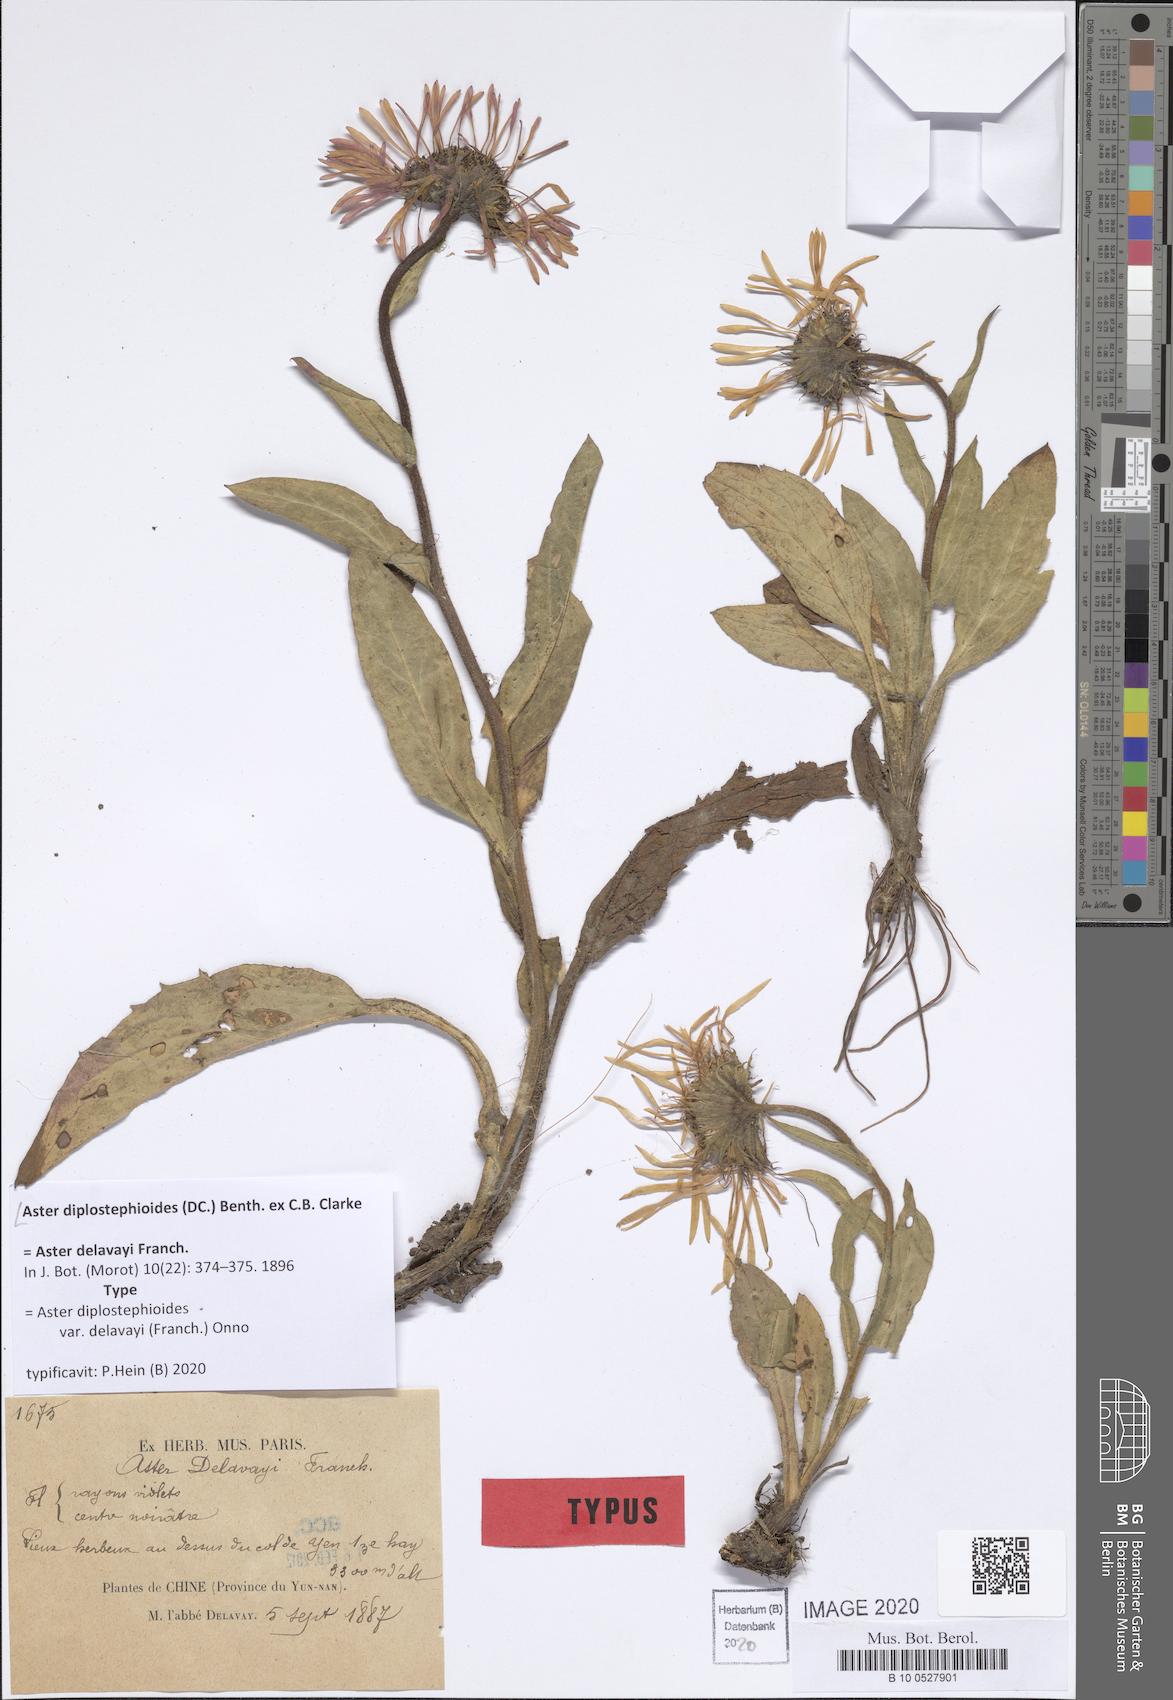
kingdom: Plantae
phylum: Tracheophyta
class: Magnoliopsida
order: Asterales
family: Asteraceae
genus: Tibetiodes
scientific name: Tibetiodes diplostephioides
